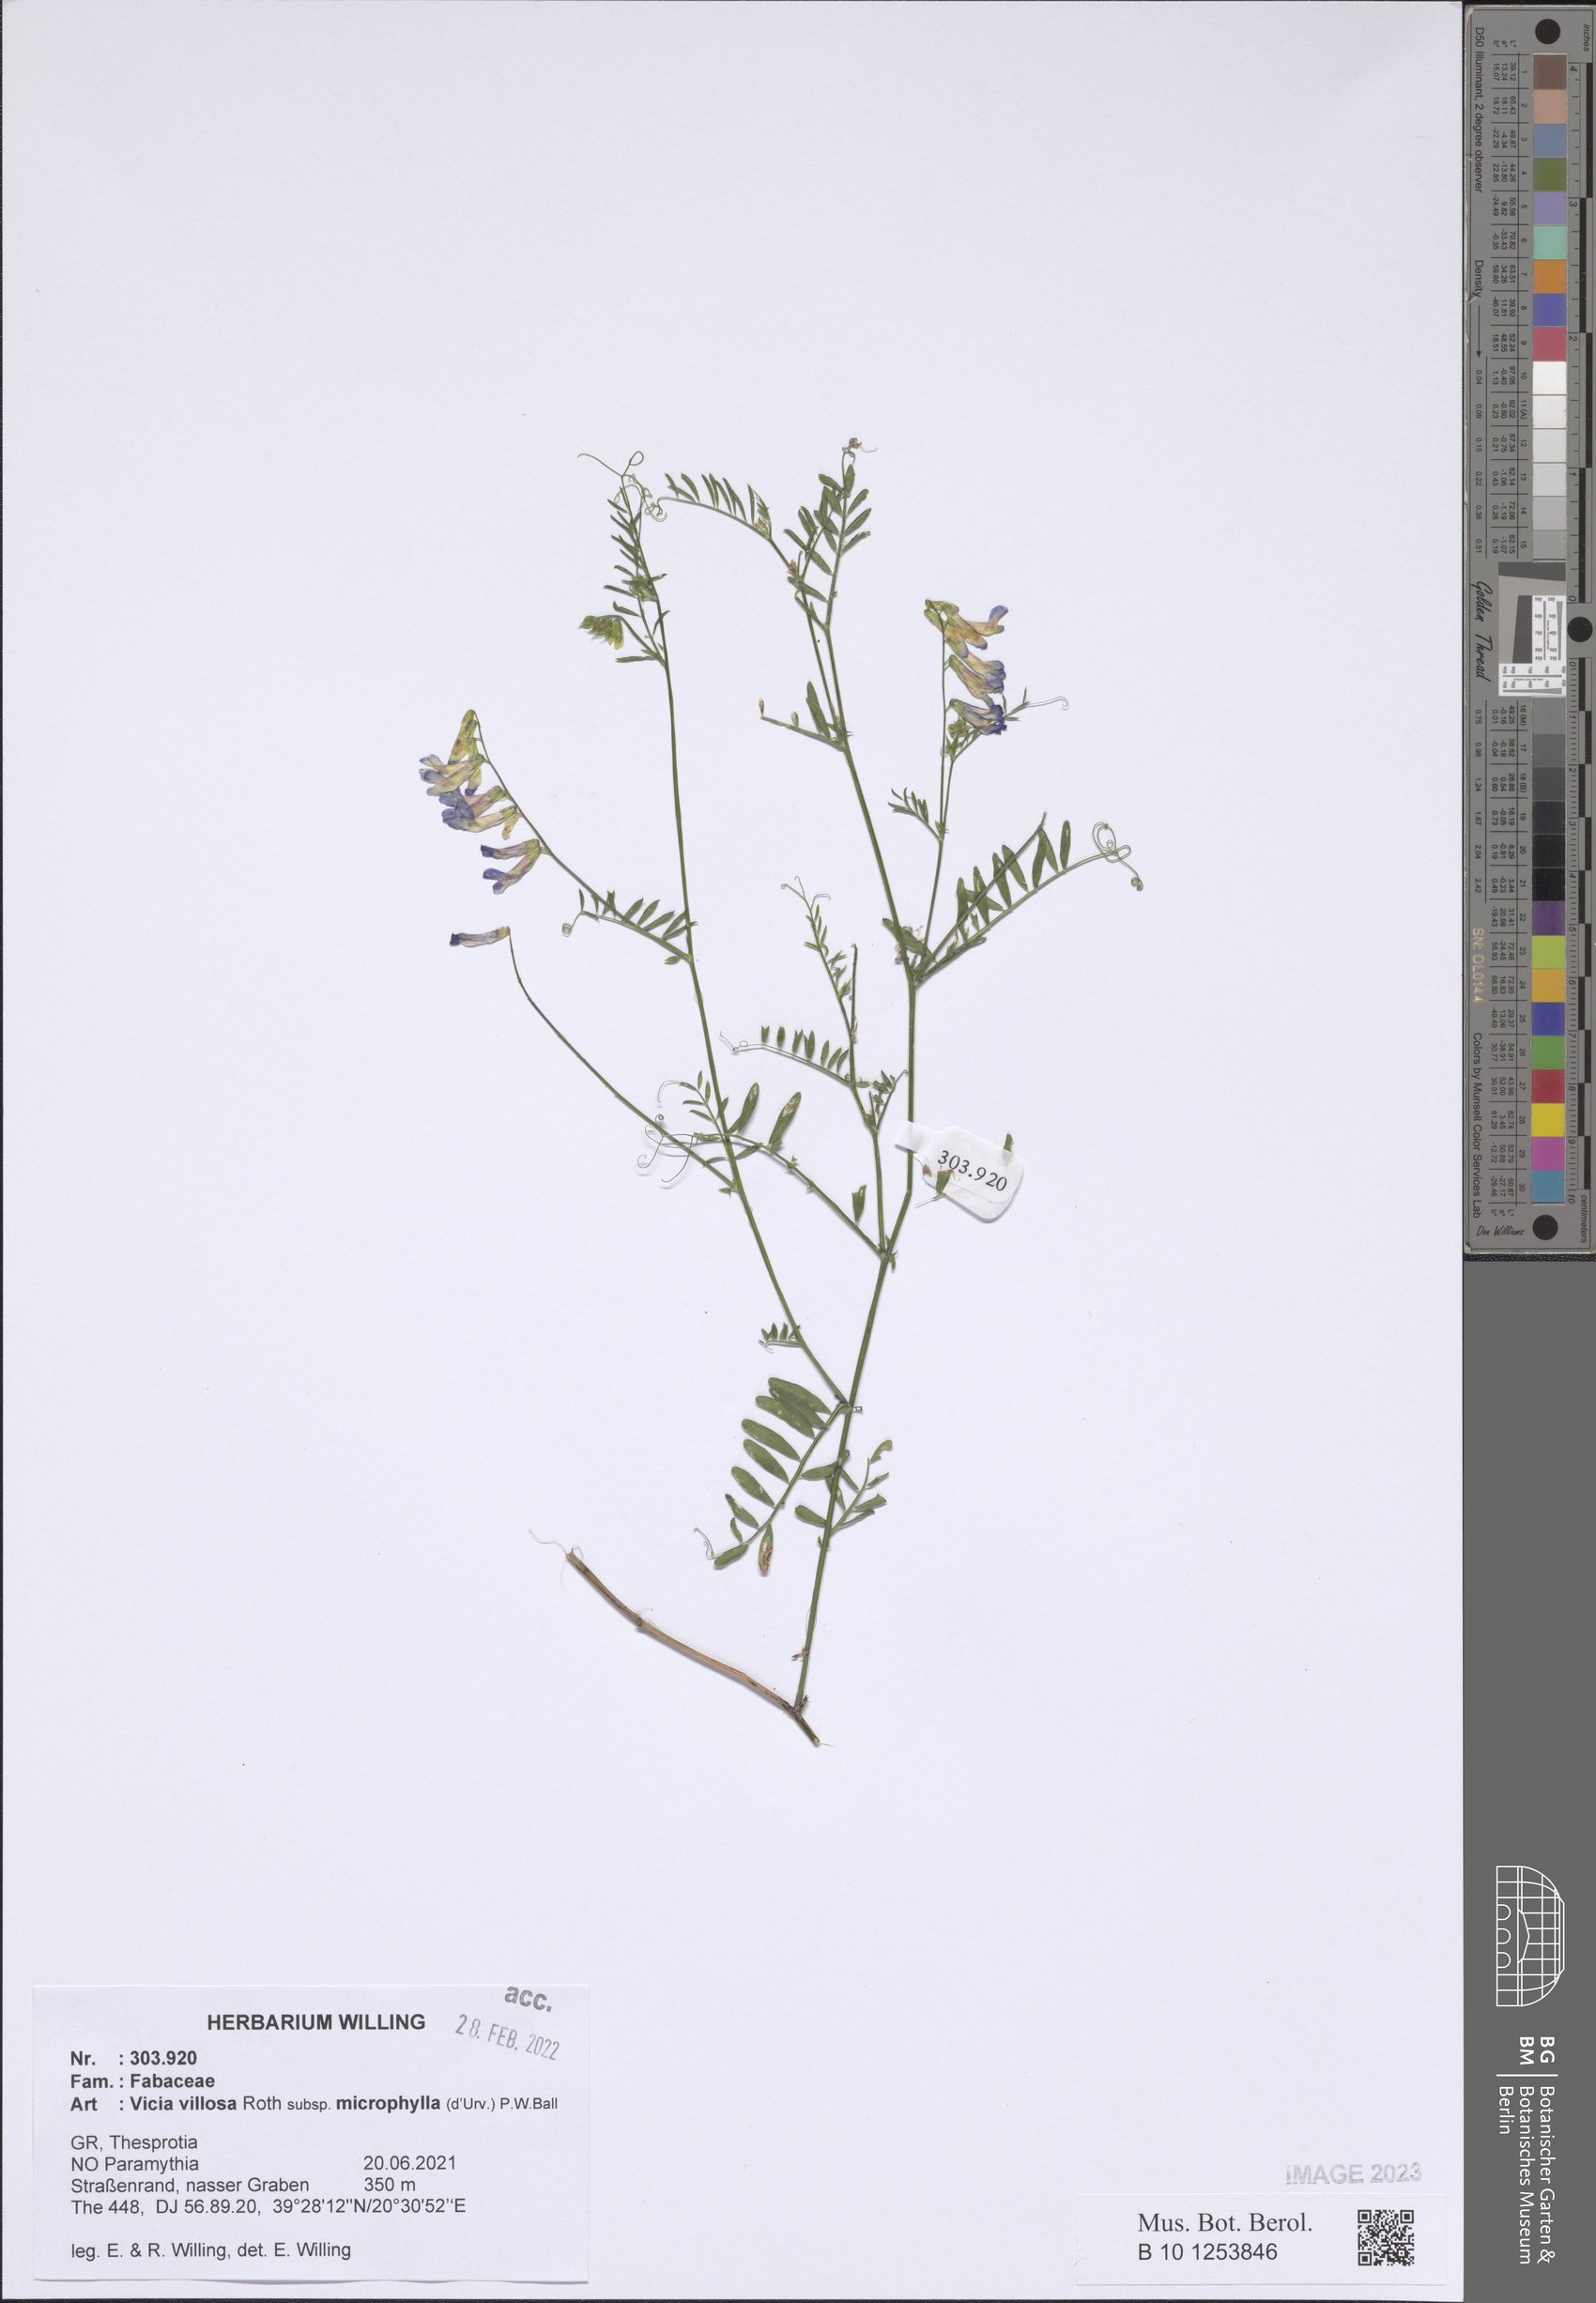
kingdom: Plantae
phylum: Tracheophyta
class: Magnoliopsida
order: Fabales
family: Fabaceae
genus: Vicia
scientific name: Vicia villosa
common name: Fodder vetch
